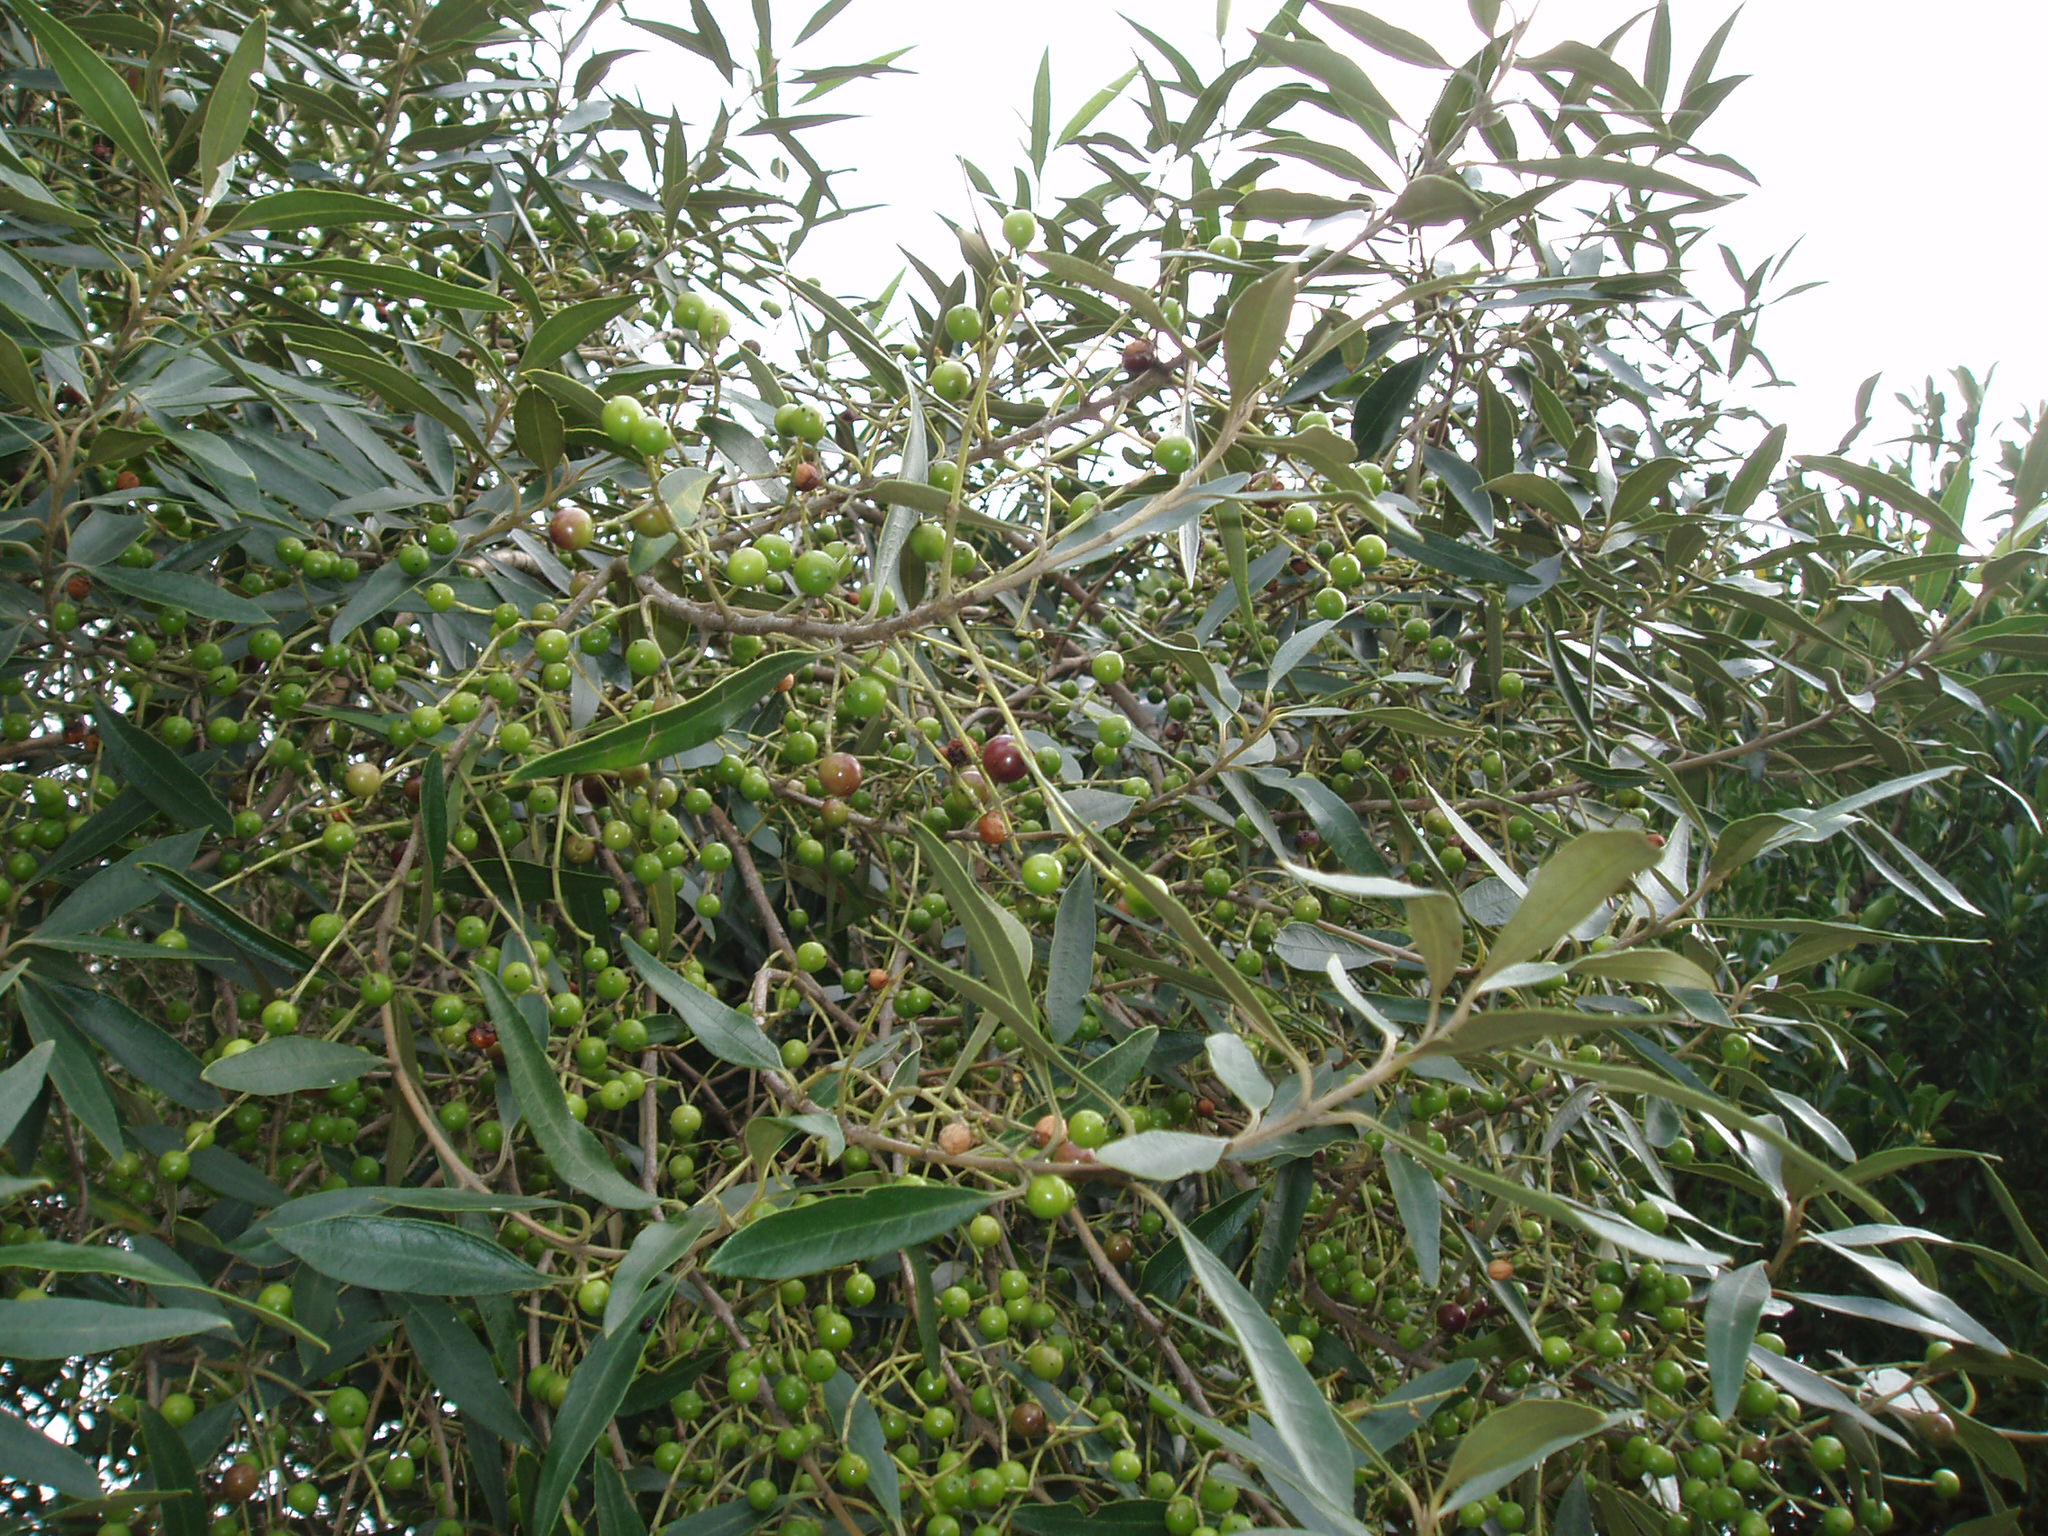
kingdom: Plantae
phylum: Tracheophyta
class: Magnoliopsida
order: Lamiales
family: Oleaceae
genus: Olea
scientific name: Olea europaea
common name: Olive
